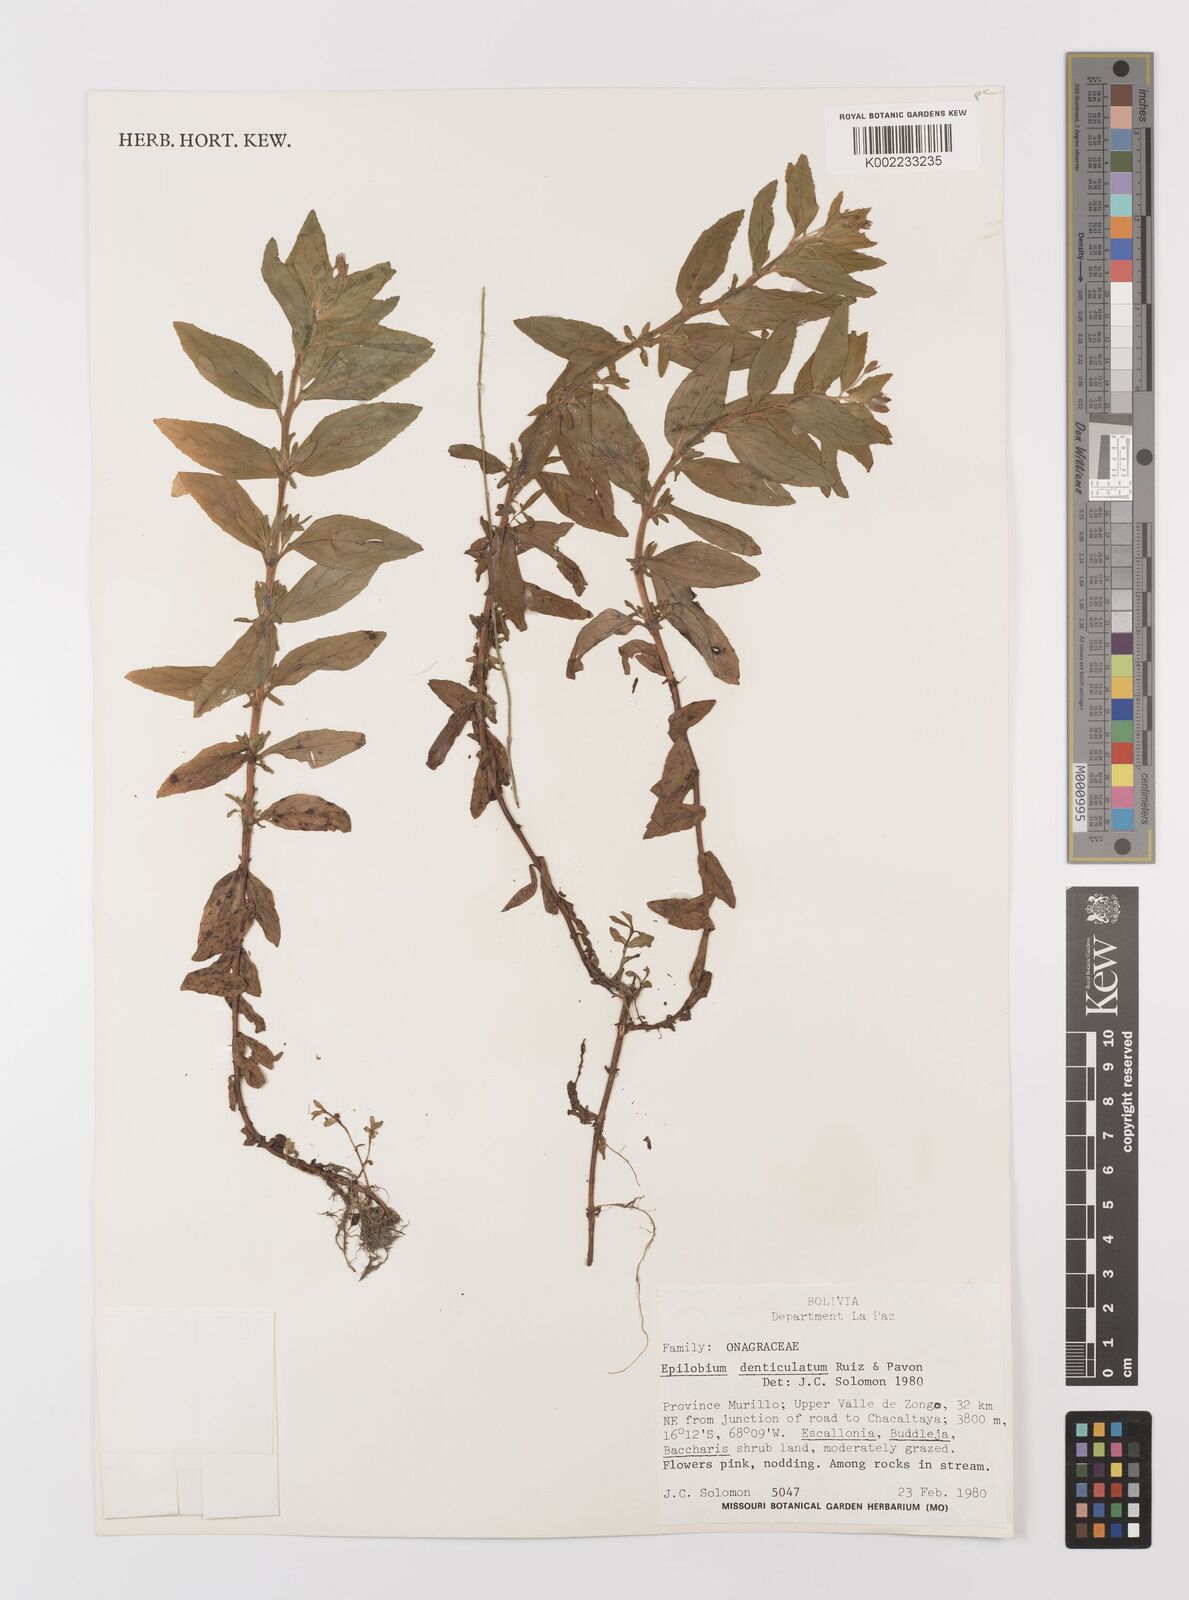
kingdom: Plantae
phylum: Tracheophyta
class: Magnoliopsida
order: Myrtales
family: Onagraceae
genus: Epilobium
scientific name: Epilobium denticulatum
